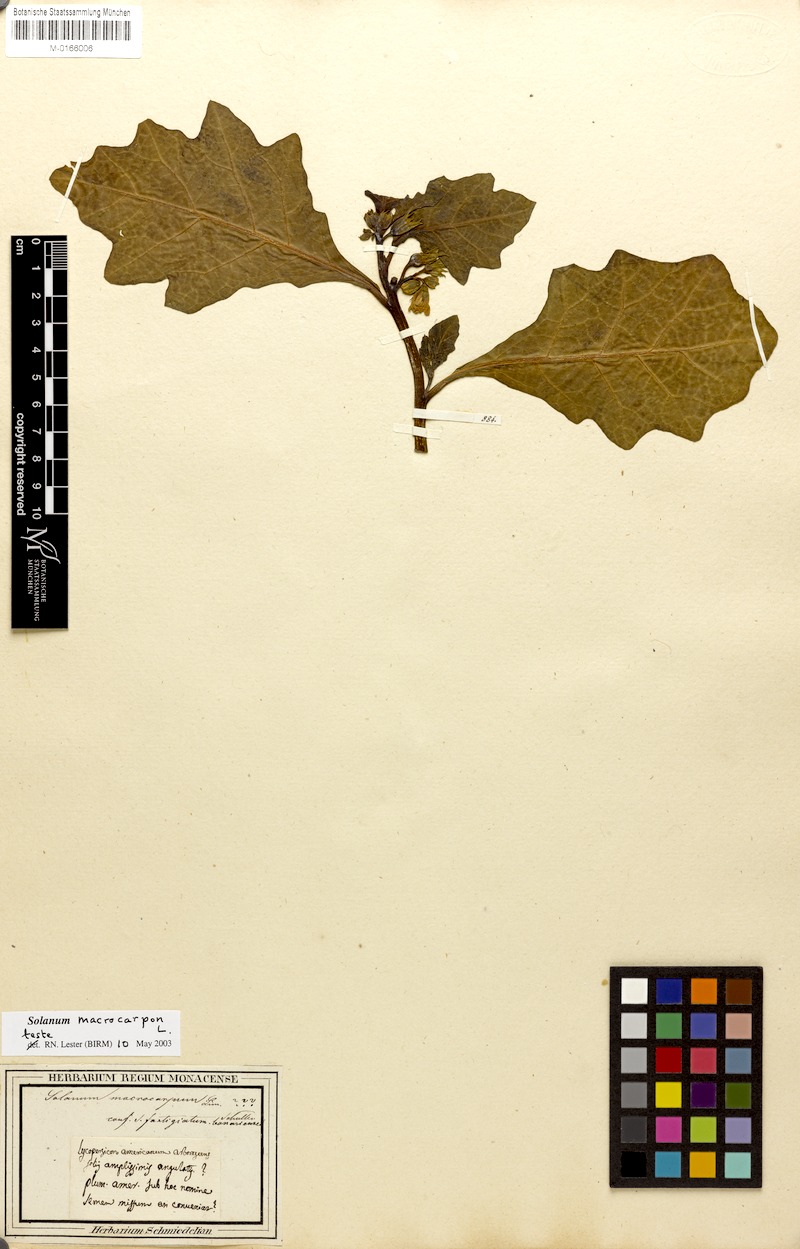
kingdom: Plantae
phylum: Tracheophyta
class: Magnoliopsida
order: Solanales
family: Solanaceae
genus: Solanum
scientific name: Solanum macrocarpon
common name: African eggplant
